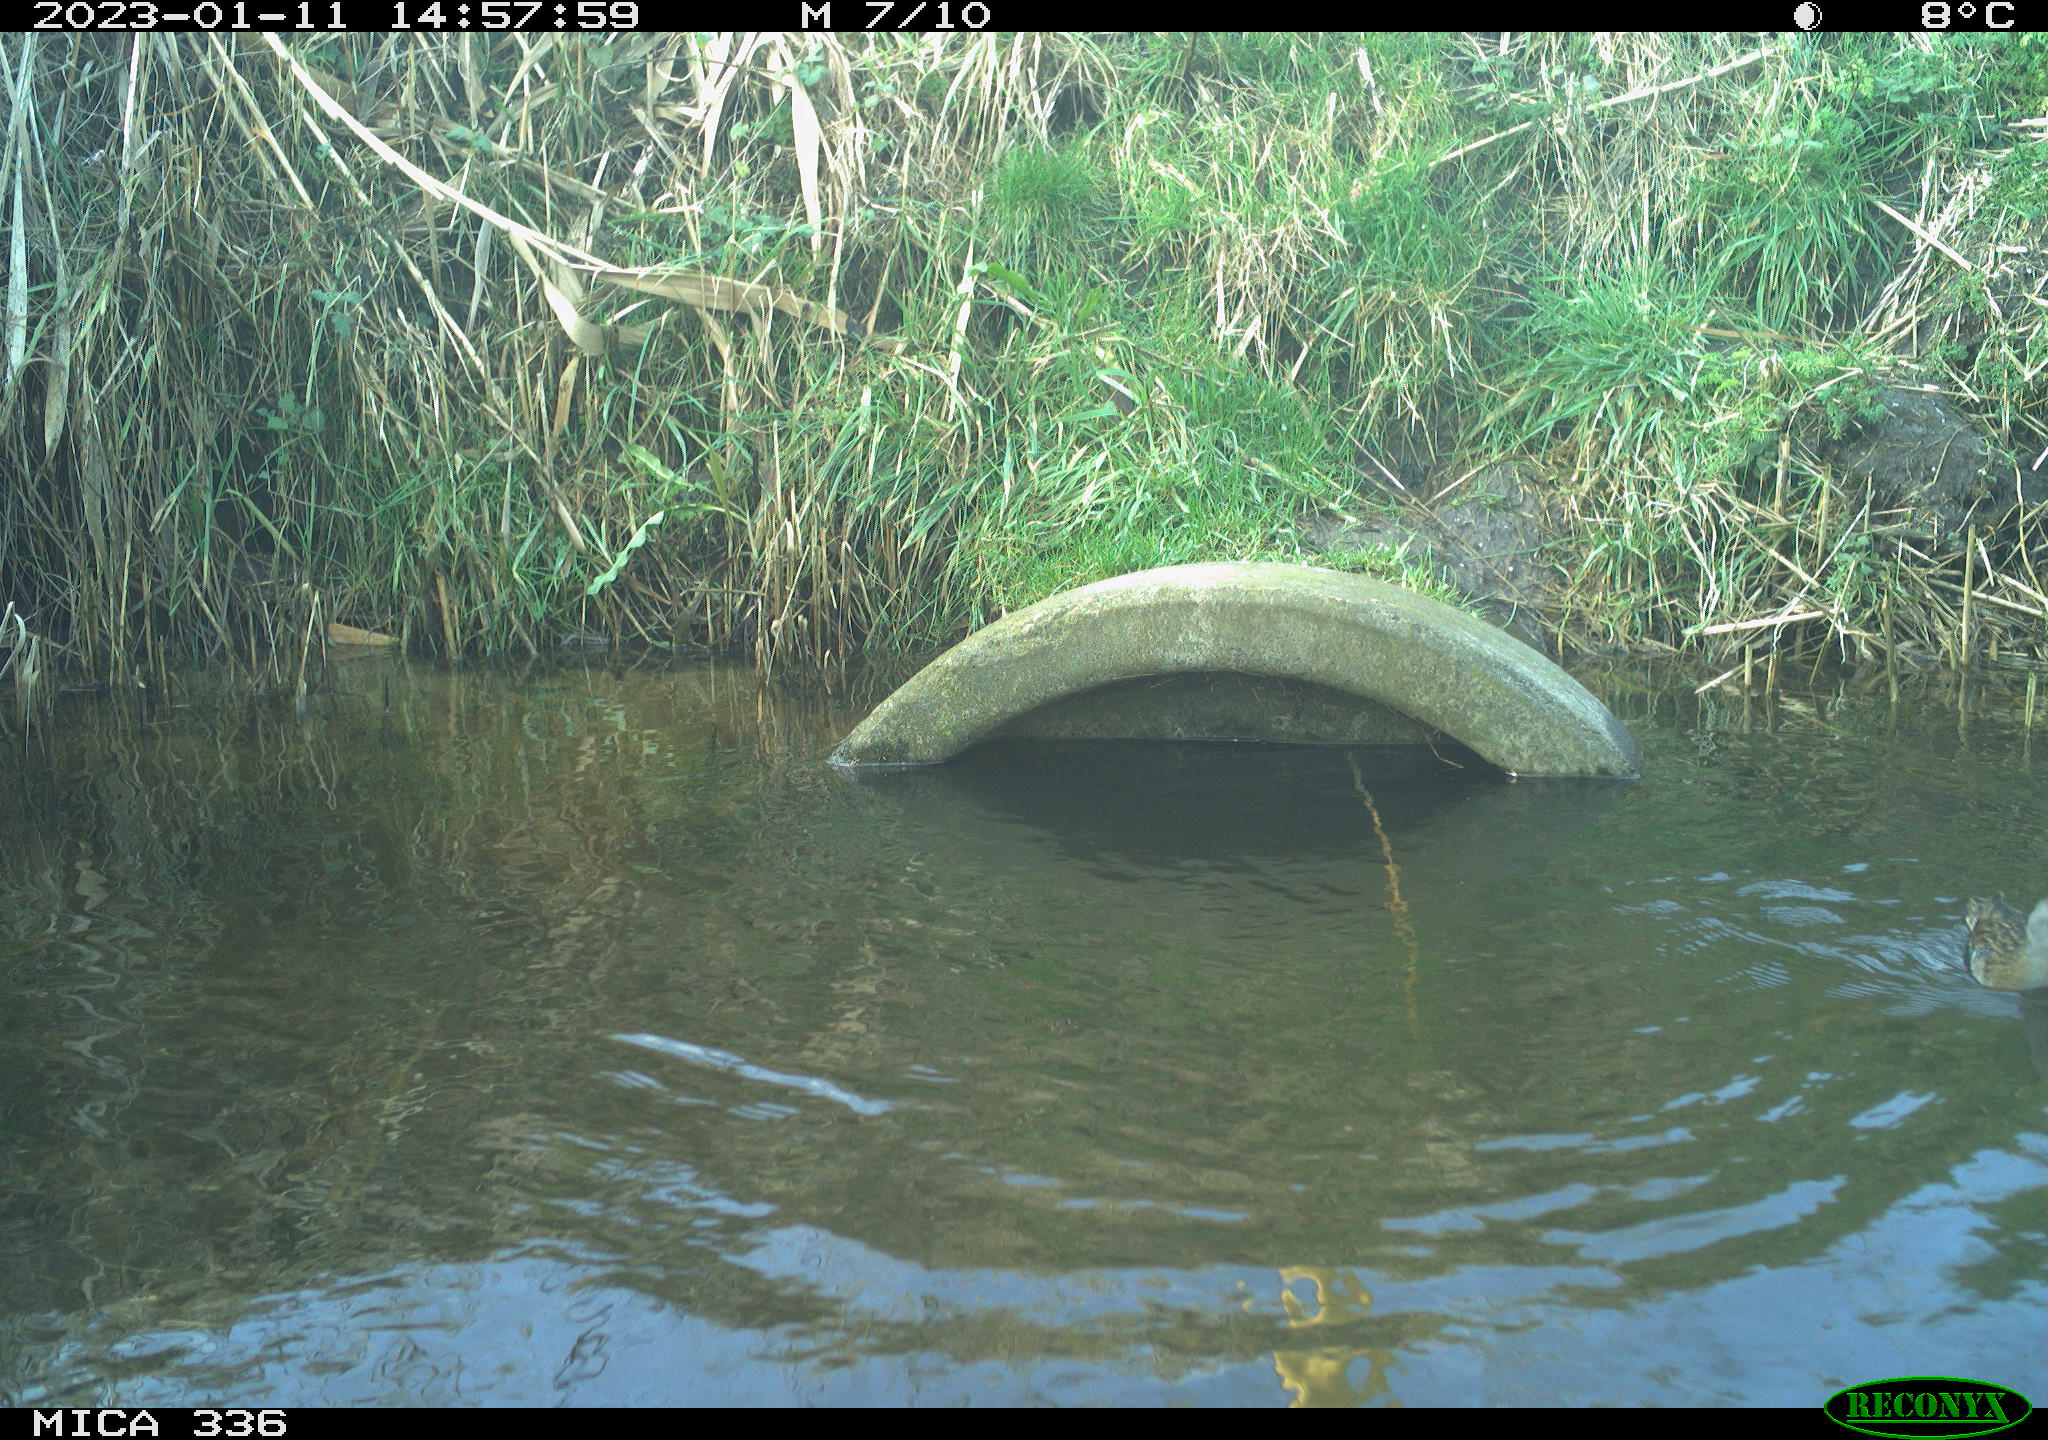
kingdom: Animalia
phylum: Chordata
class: Aves
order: Gruiformes
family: Rallidae
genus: Rallus
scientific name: Rallus aquaticus
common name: Water rail
